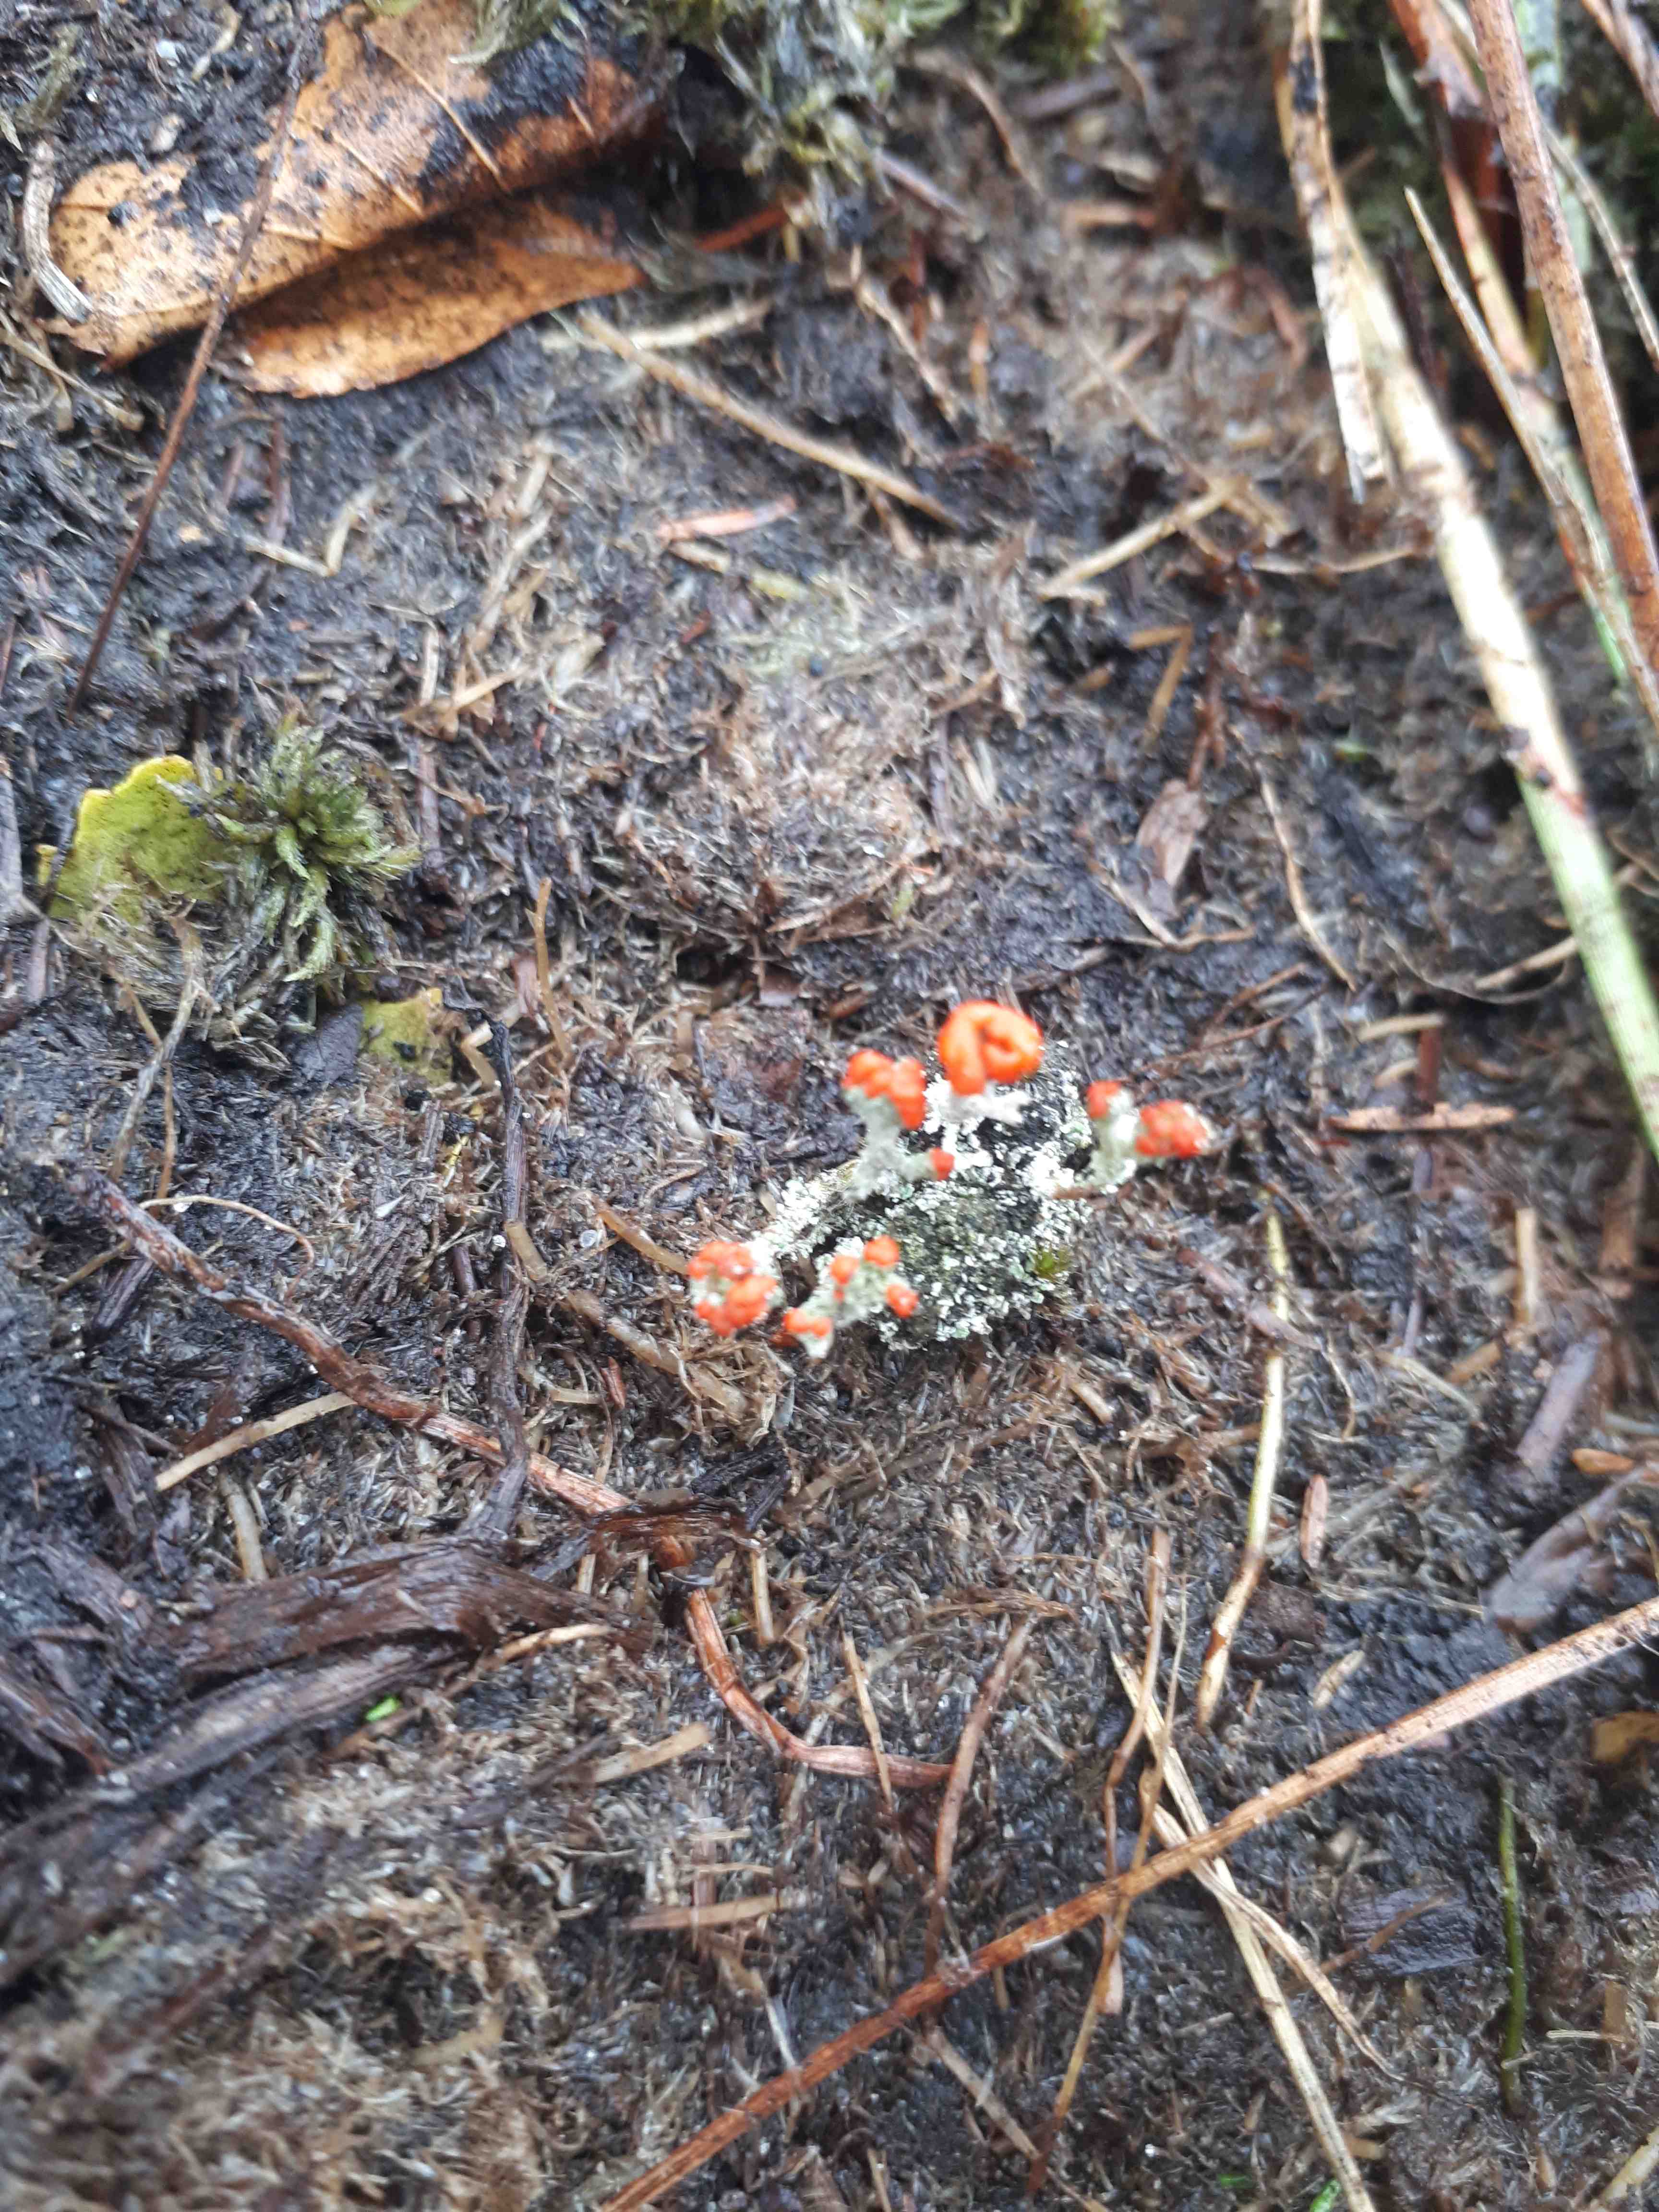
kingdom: Fungi
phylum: Ascomycota
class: Lecanoromycetes
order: Lecanorales
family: Cladoniaceae
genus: Cladonia
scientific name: Cladonia floerkeana
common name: lakrød bægerlav
